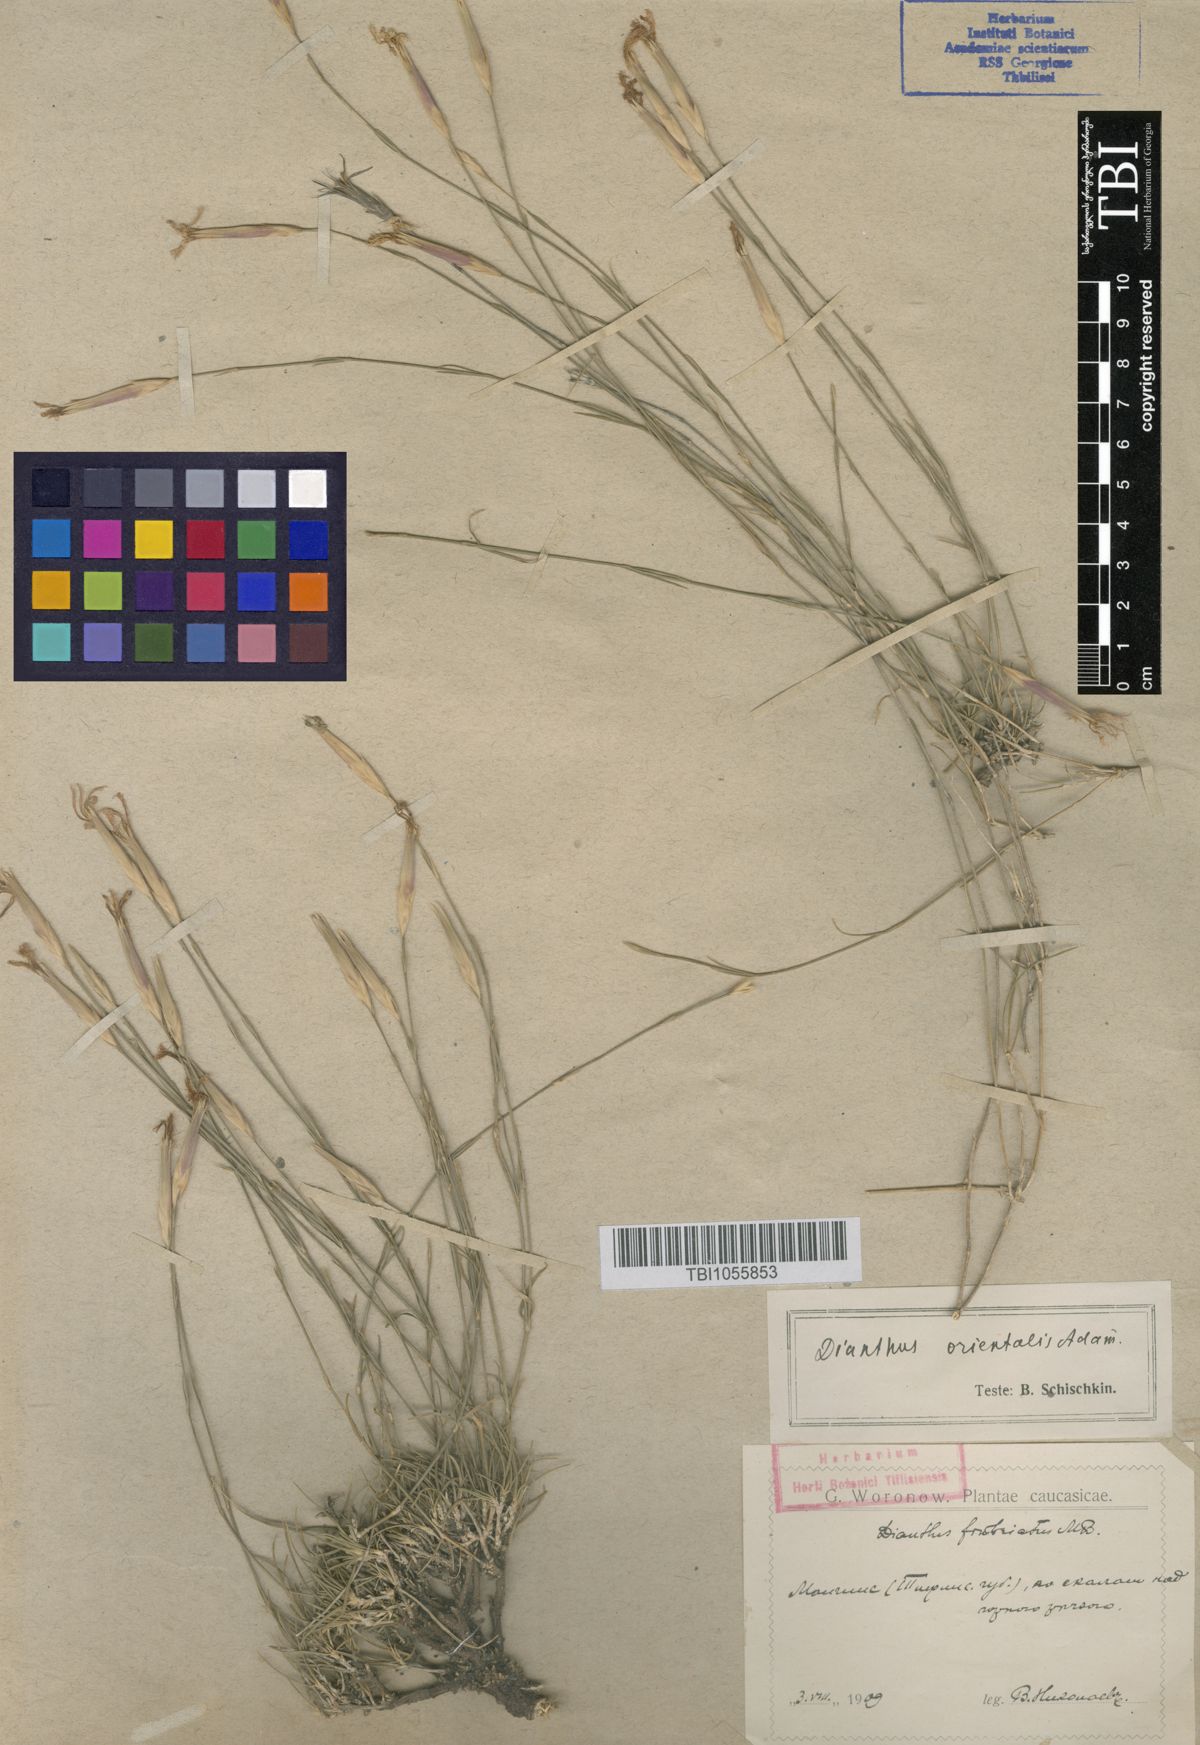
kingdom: Plantae
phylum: Tracheophyta
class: Magnoliopsida
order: Caryophyllales
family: Caryophyllaceae
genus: Dianthus
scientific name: Dianthus orientalis
